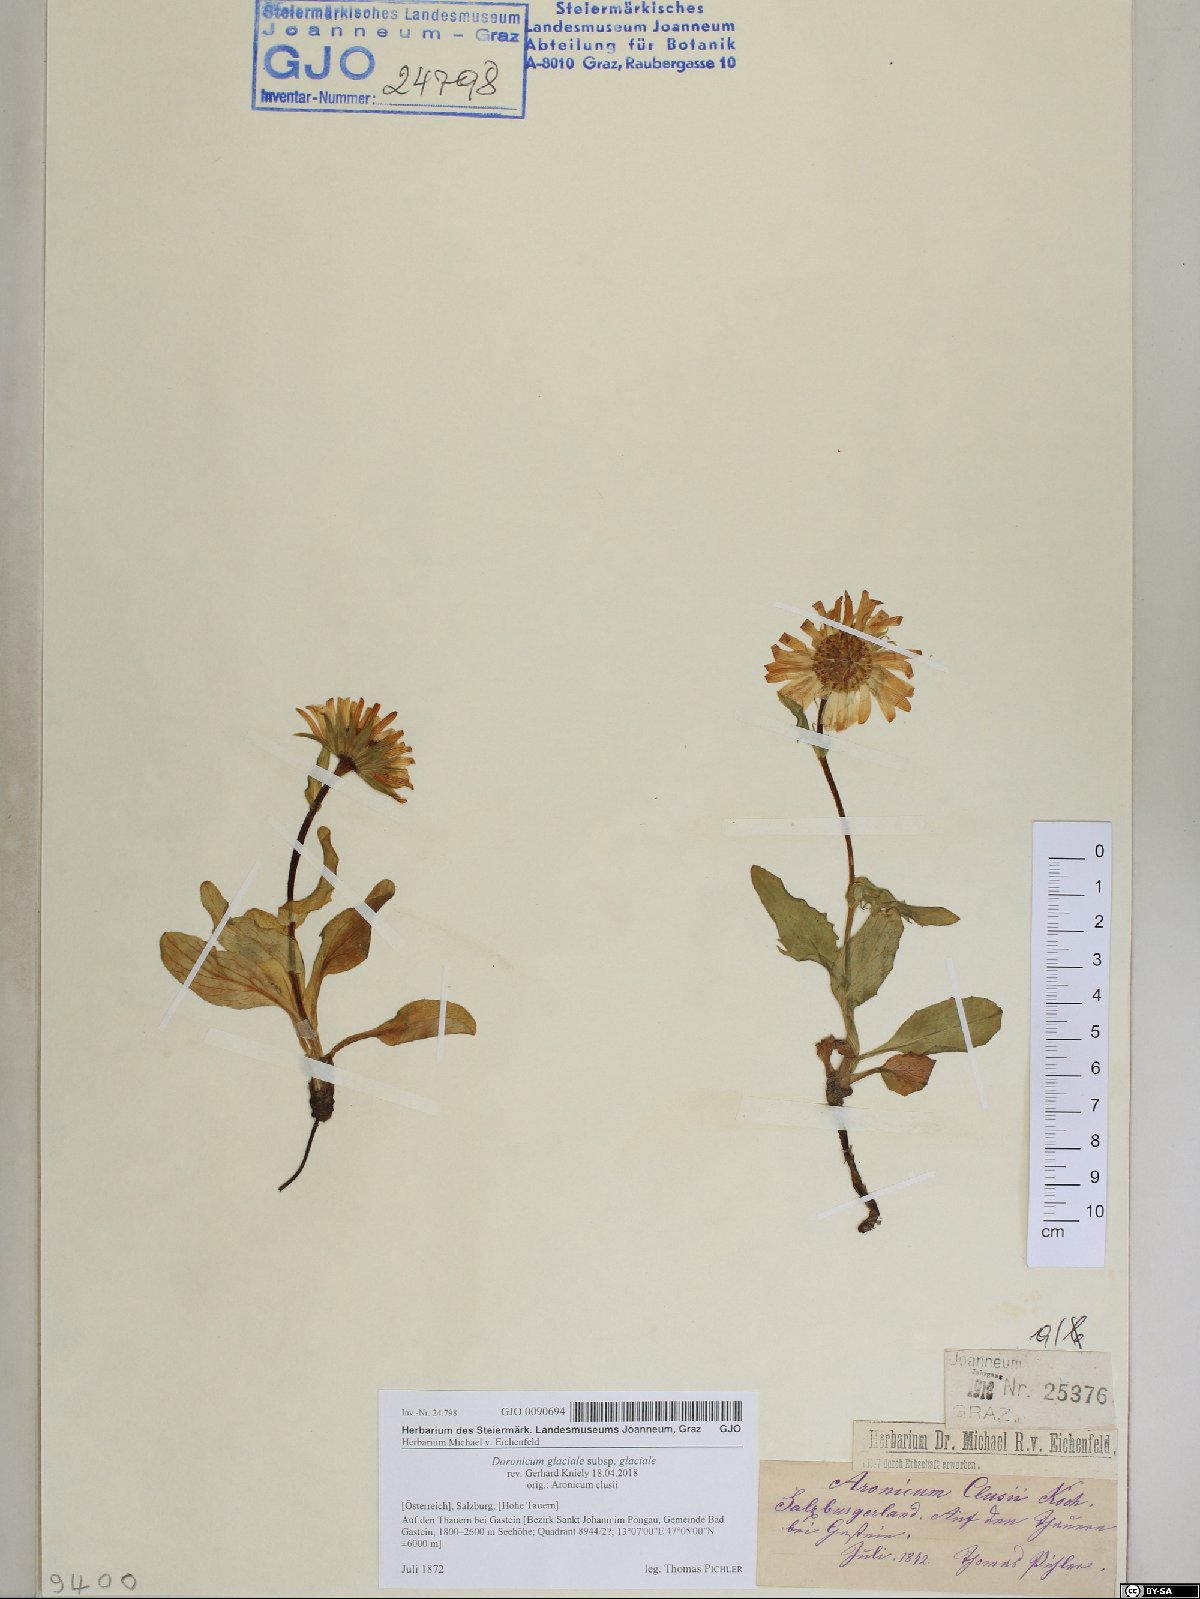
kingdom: Plantae
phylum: Tracheophyta
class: Magnoliopsida
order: Asterales
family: Asteraceae
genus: Doronicum
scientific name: Doronicum glaciale
